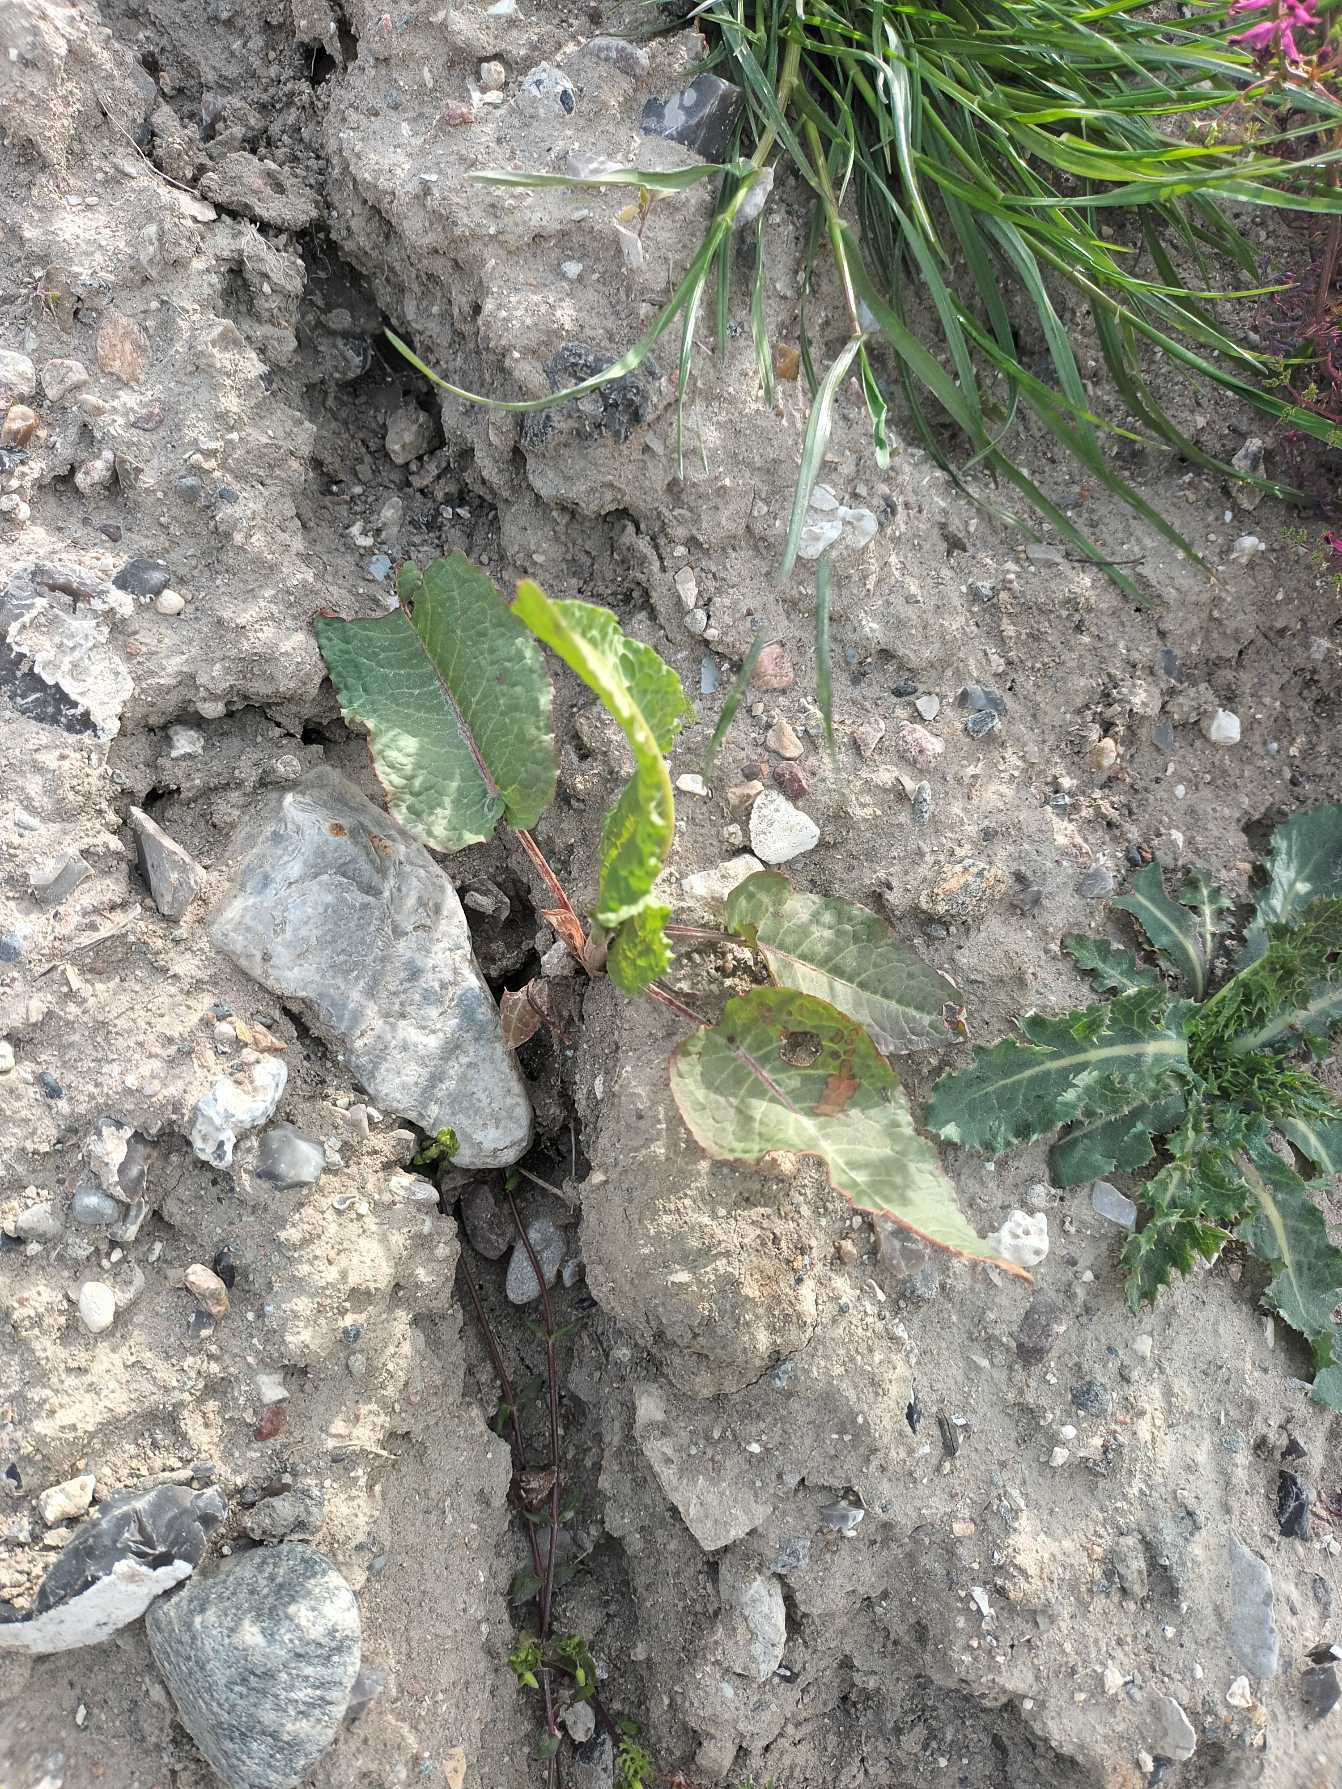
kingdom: Plantae
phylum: Tracheophyta
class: Magnoliopsida
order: Caryophyllales
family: Polygonaceae
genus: Rumex
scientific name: Rumex obtusifolius
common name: Butbladet skræppe
